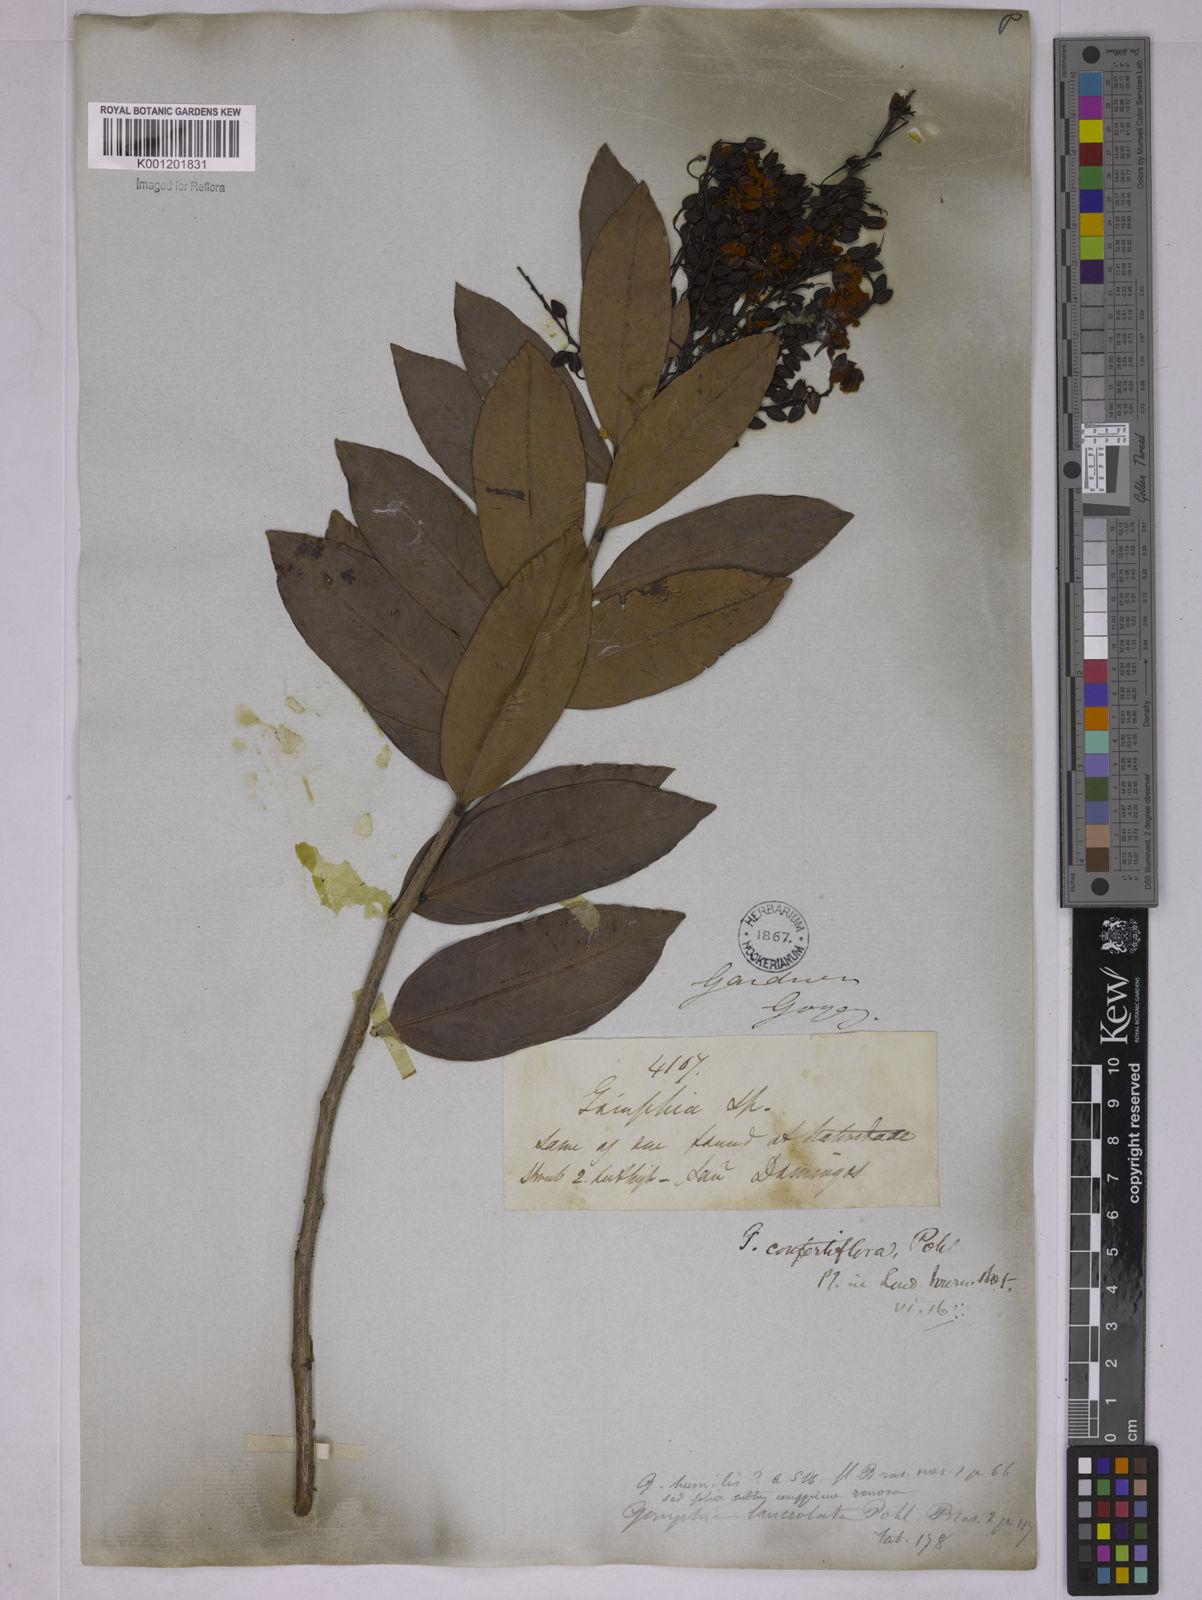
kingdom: Plantae
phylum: Tracheophyta
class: Magnoliopsida
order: Malpighiales
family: Ochnaceae
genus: Ouratea
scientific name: Ouratea confertiflora
